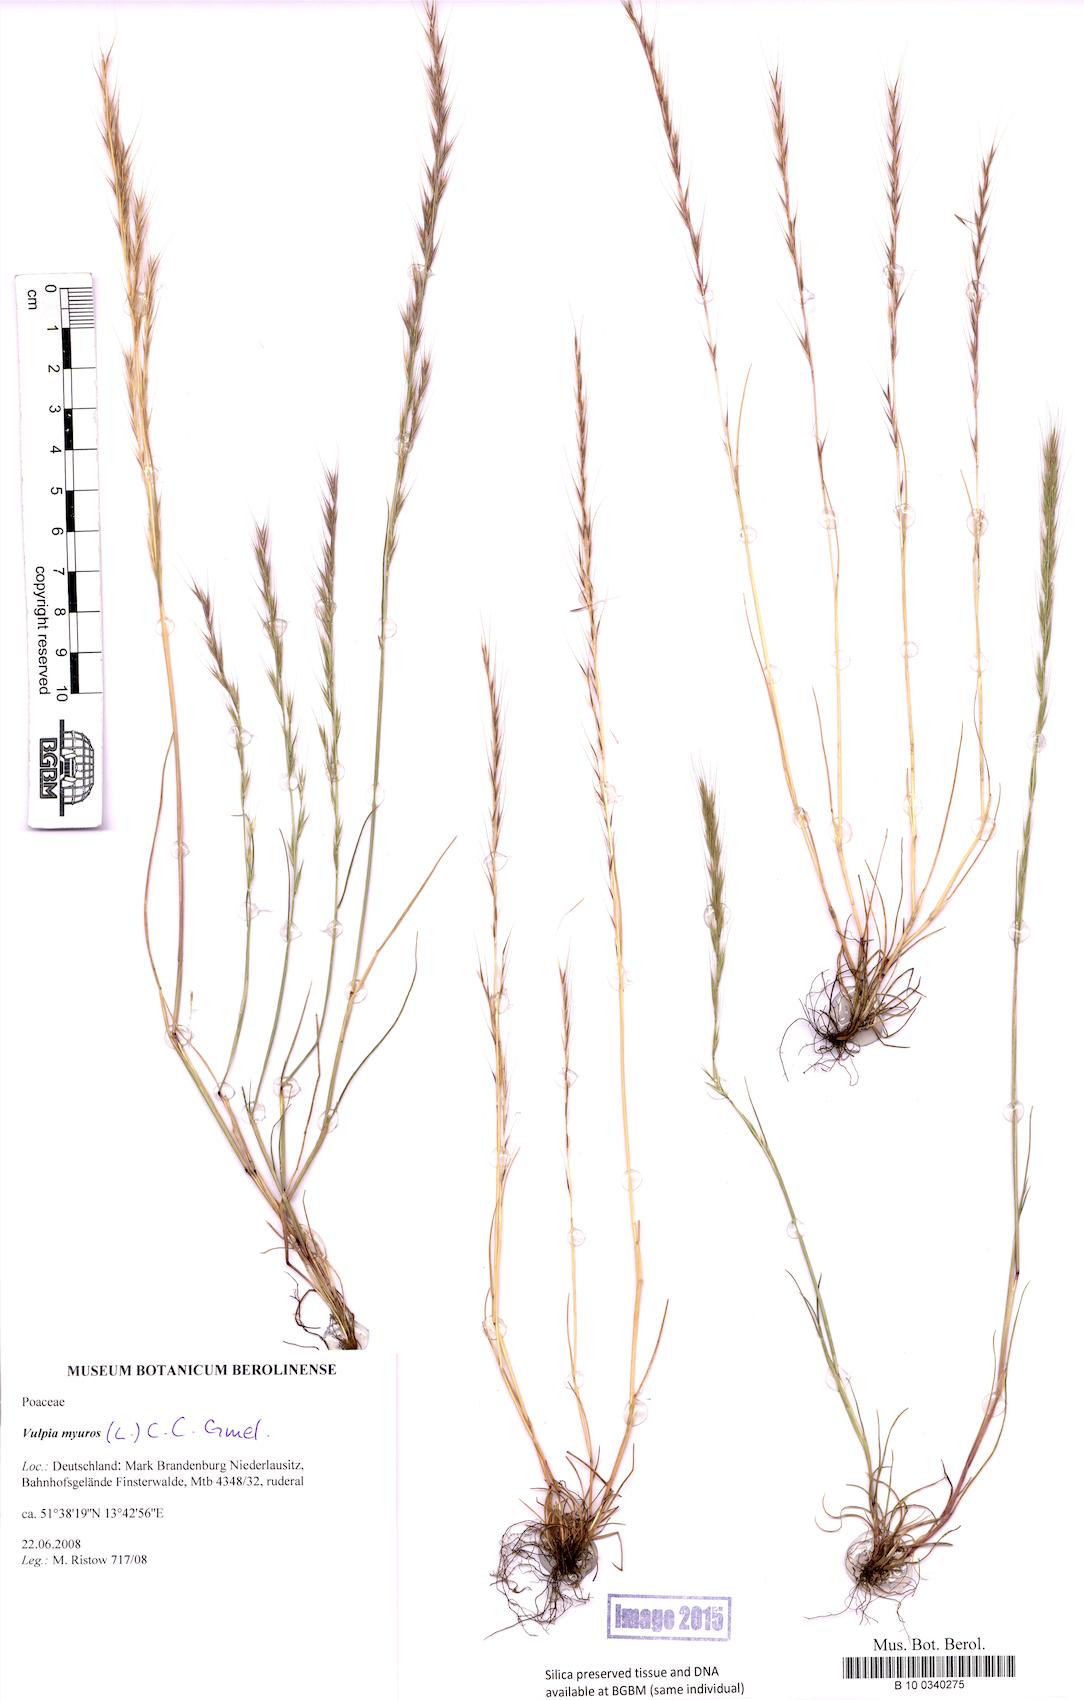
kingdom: Plantae
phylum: Tracheophyta
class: Liliopsida
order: Poales
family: Poaceae
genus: Festuca
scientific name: Festuca myuros
